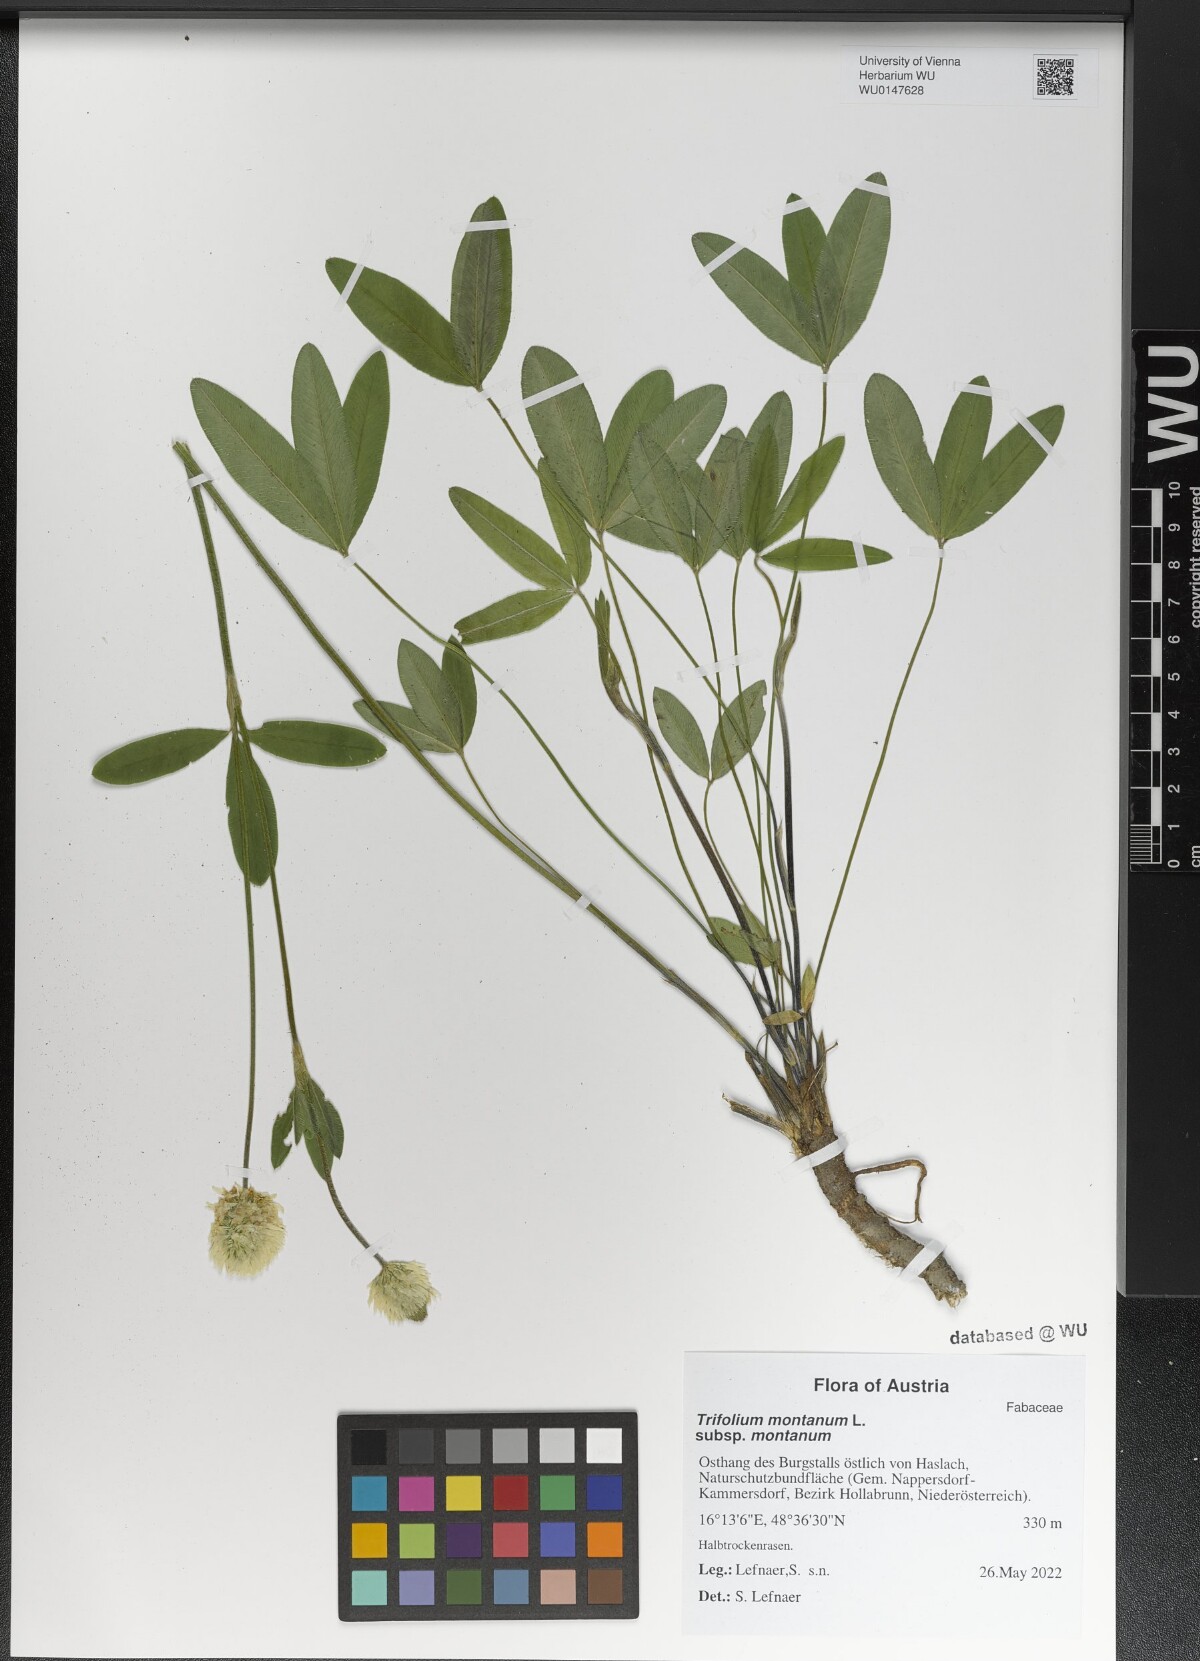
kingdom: Plantae
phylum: Tracheophyta
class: Magnoliopsida
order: Fabales
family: Fabaceae
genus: Trifolium
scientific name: Trifolium montanum
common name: Mountain clover
